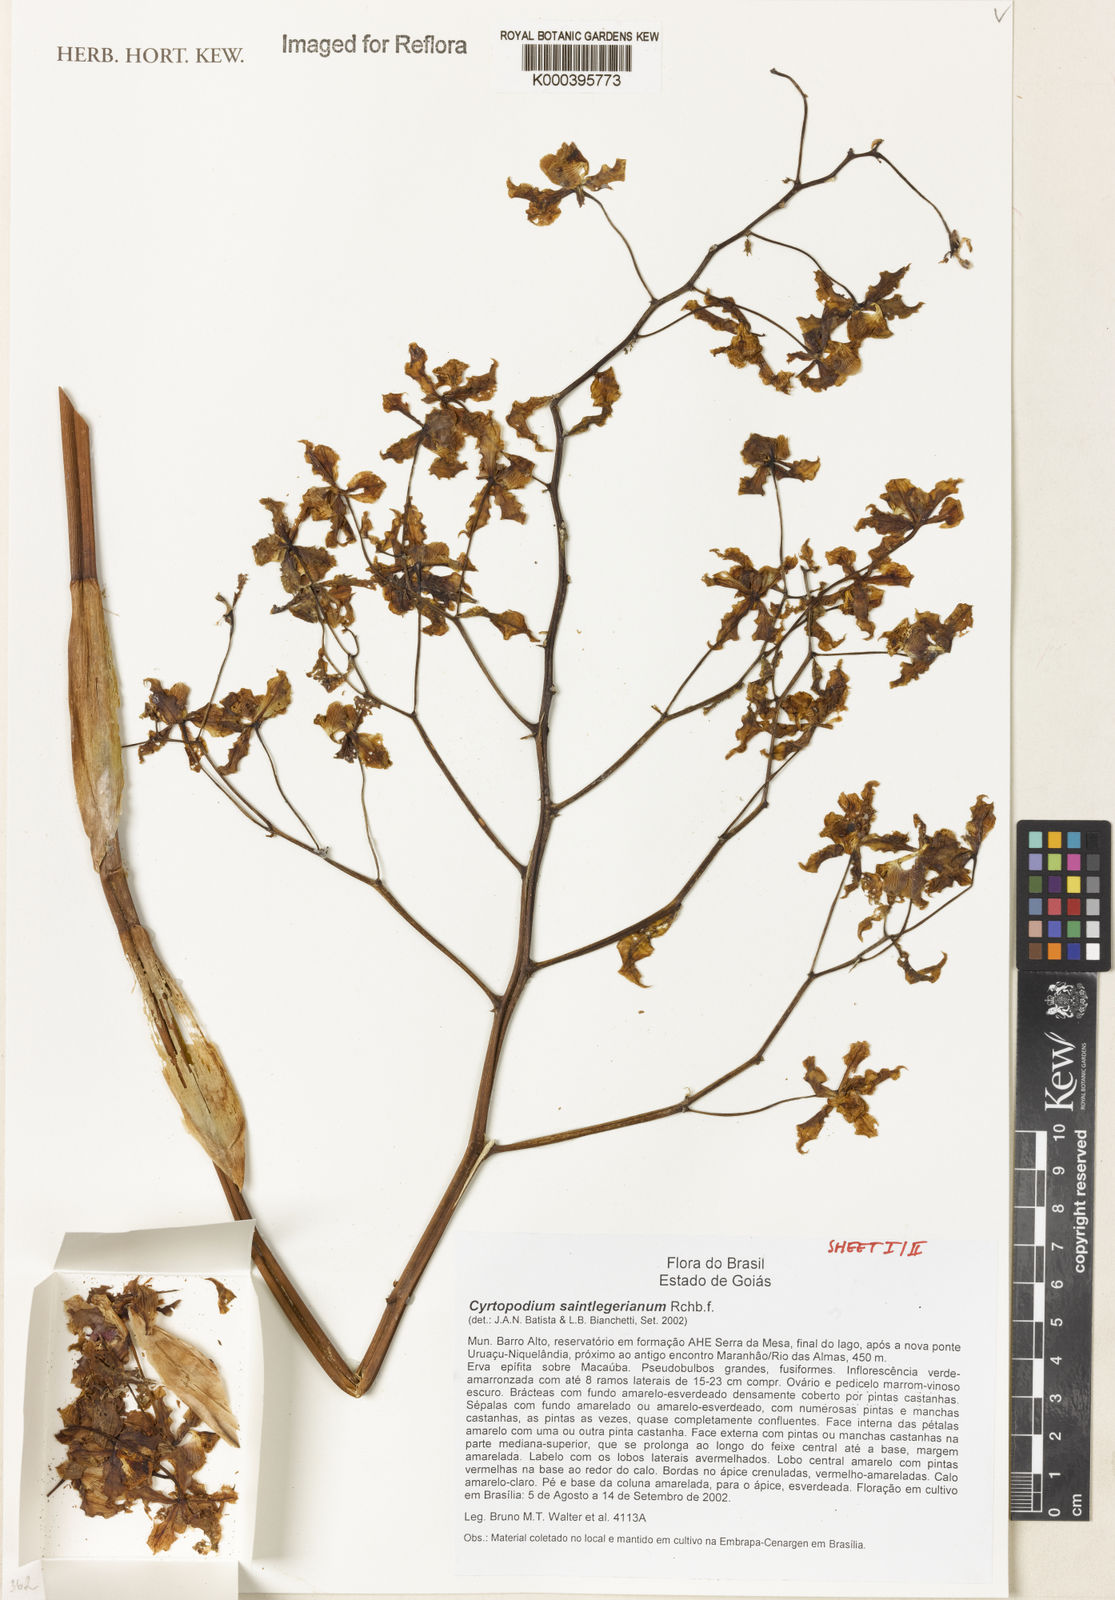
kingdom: Plantae
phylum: Tracheophyta
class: Liliopsida
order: Asparagales
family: Orchidaceae
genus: Nervilia
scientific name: Nervilia shirensis
